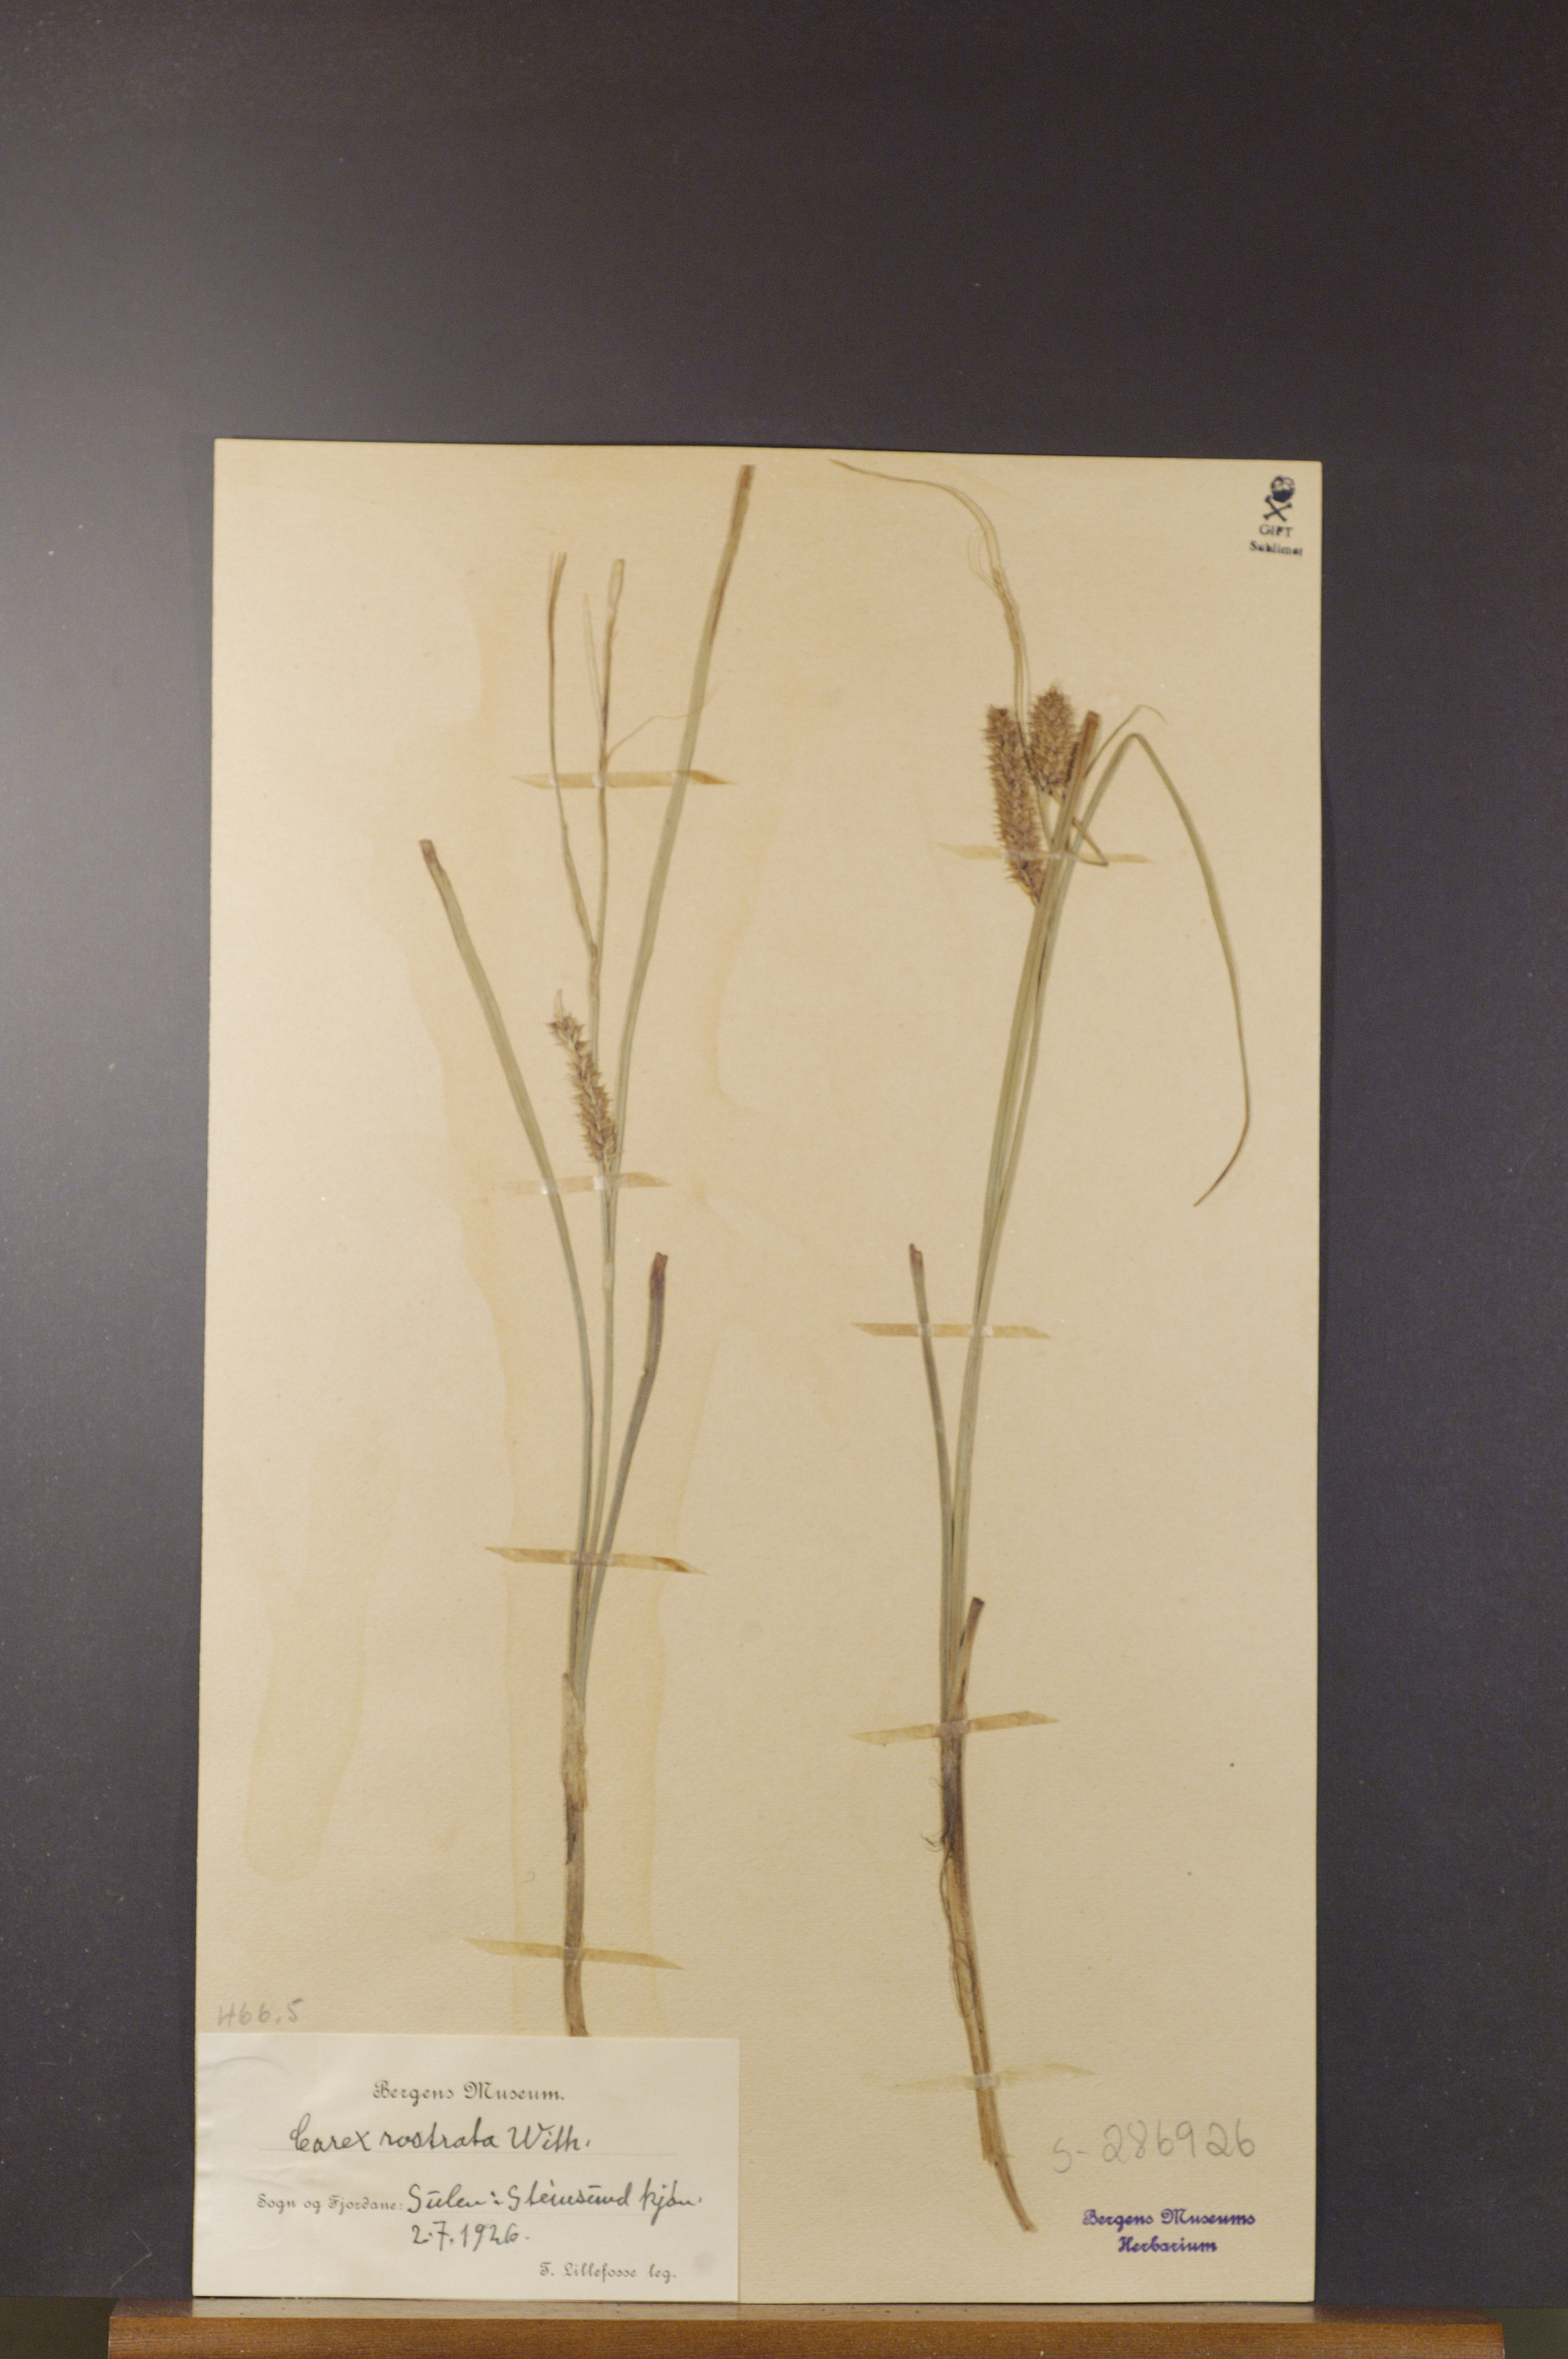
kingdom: Plantae
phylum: Tracheophyta
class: Liliopsida
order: Poales
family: Cyperaceae
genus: Carex
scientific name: Carex rostrata
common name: Bottle sedge
